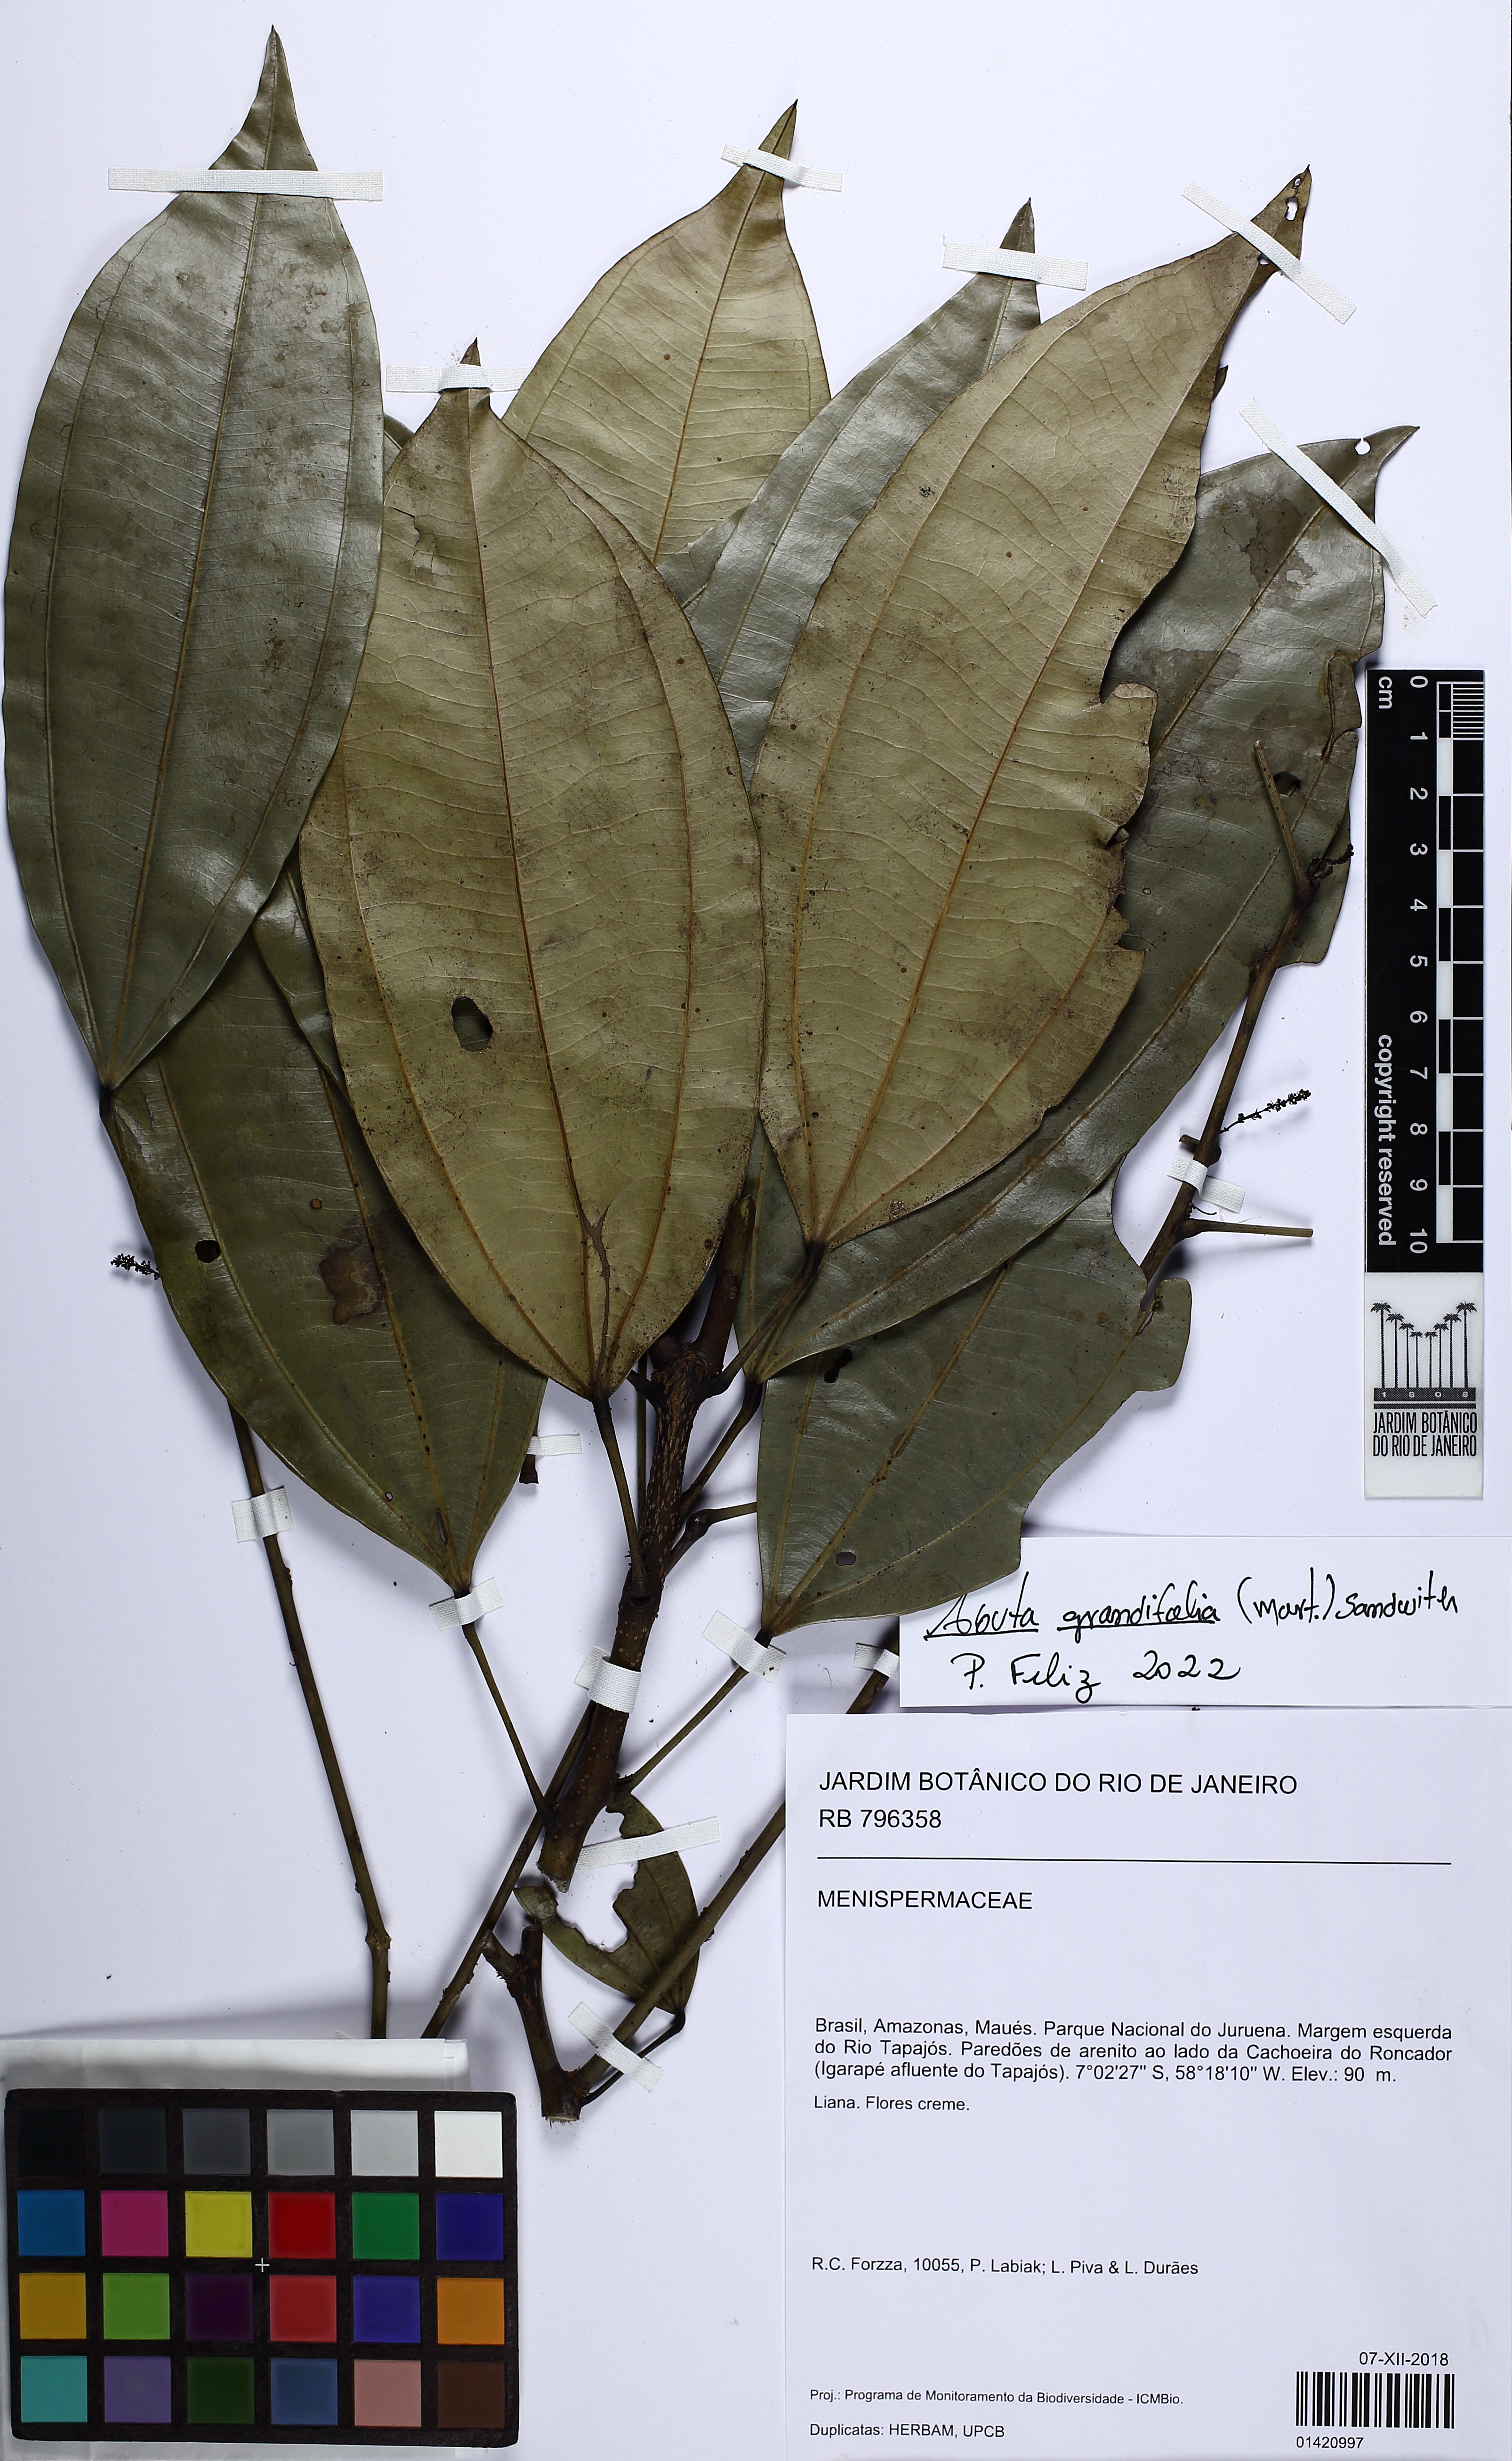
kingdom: Plantae
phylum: Tracheophyta
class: Magnoliopsida
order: Ranunculales
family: Menispermaceae
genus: Abuta
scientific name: Abuta grandifolia
